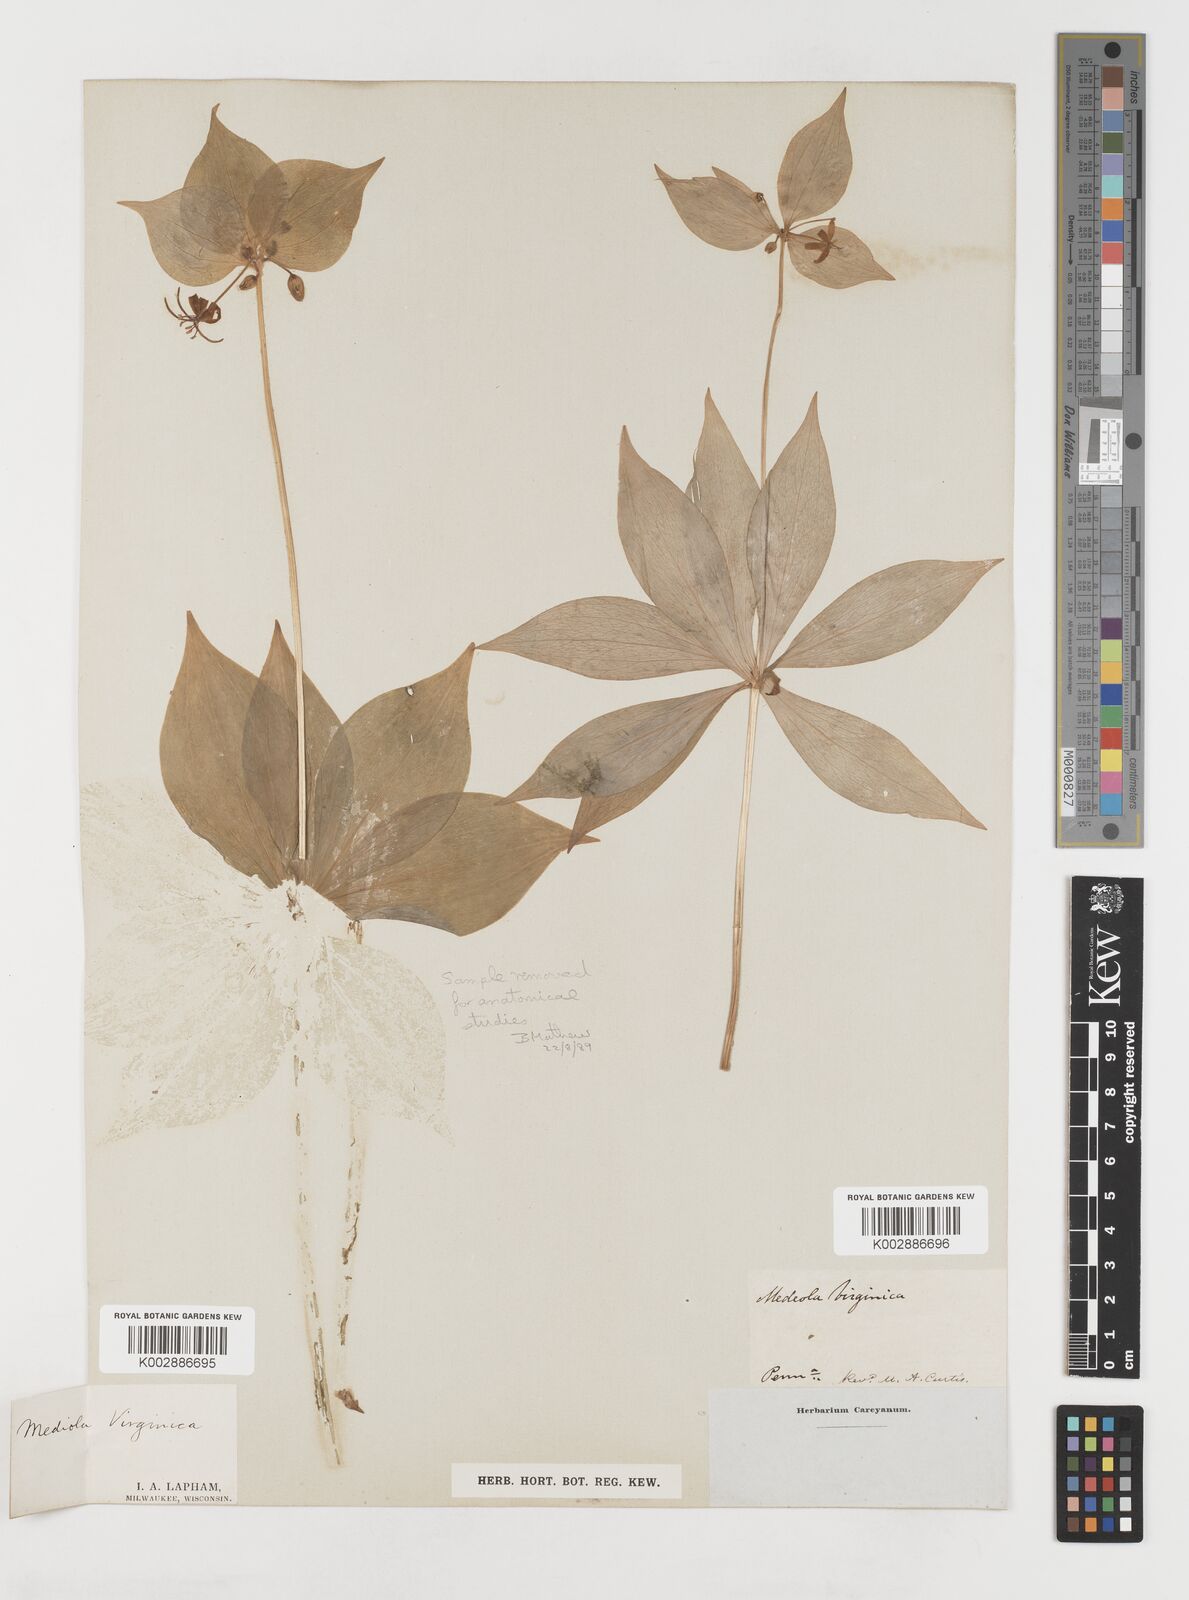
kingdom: Plantae
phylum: Tracheophyta
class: Liliopsida
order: Liliales
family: Liliaceae
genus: Medeola
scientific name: Medeola virginiana
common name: Indian cucumber-root
